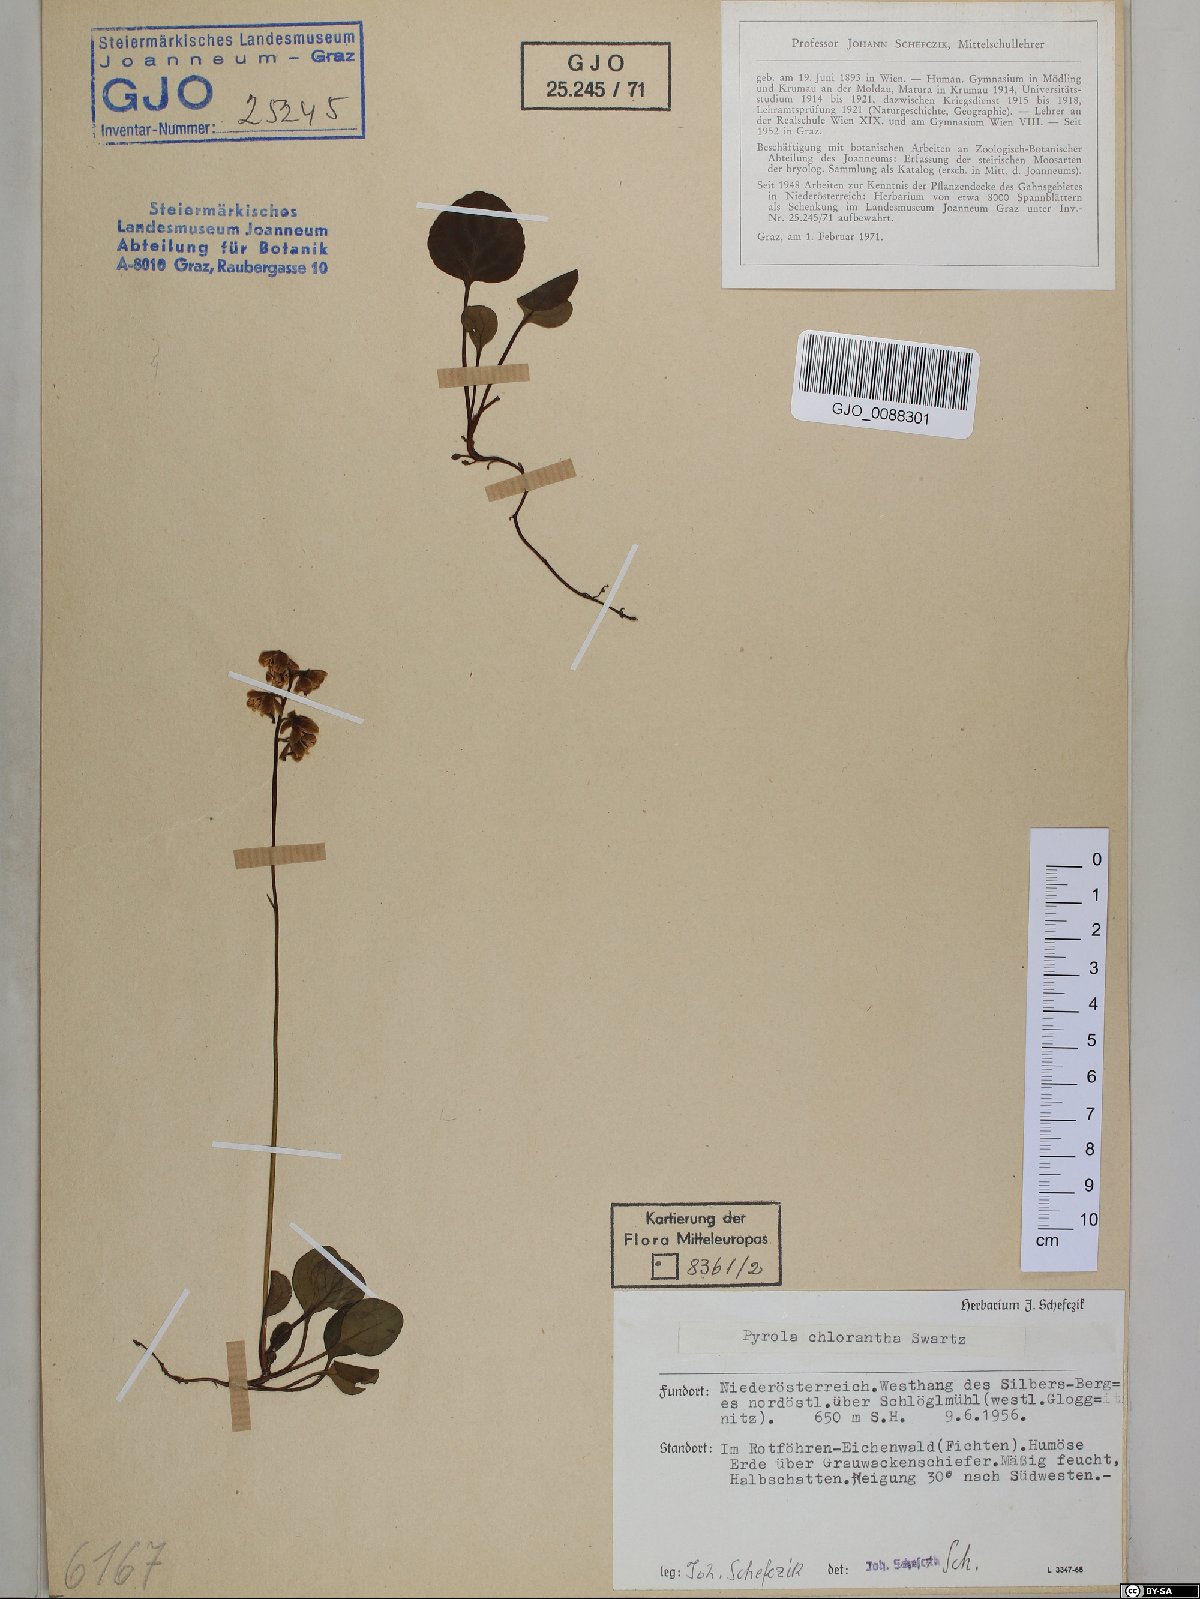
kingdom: Plantae
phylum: Tracheophyta
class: Magnoliopsida
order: Ericales
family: Ericaceae
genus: Pyrola
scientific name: Pyrola chlorantha
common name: Green wintergreen
